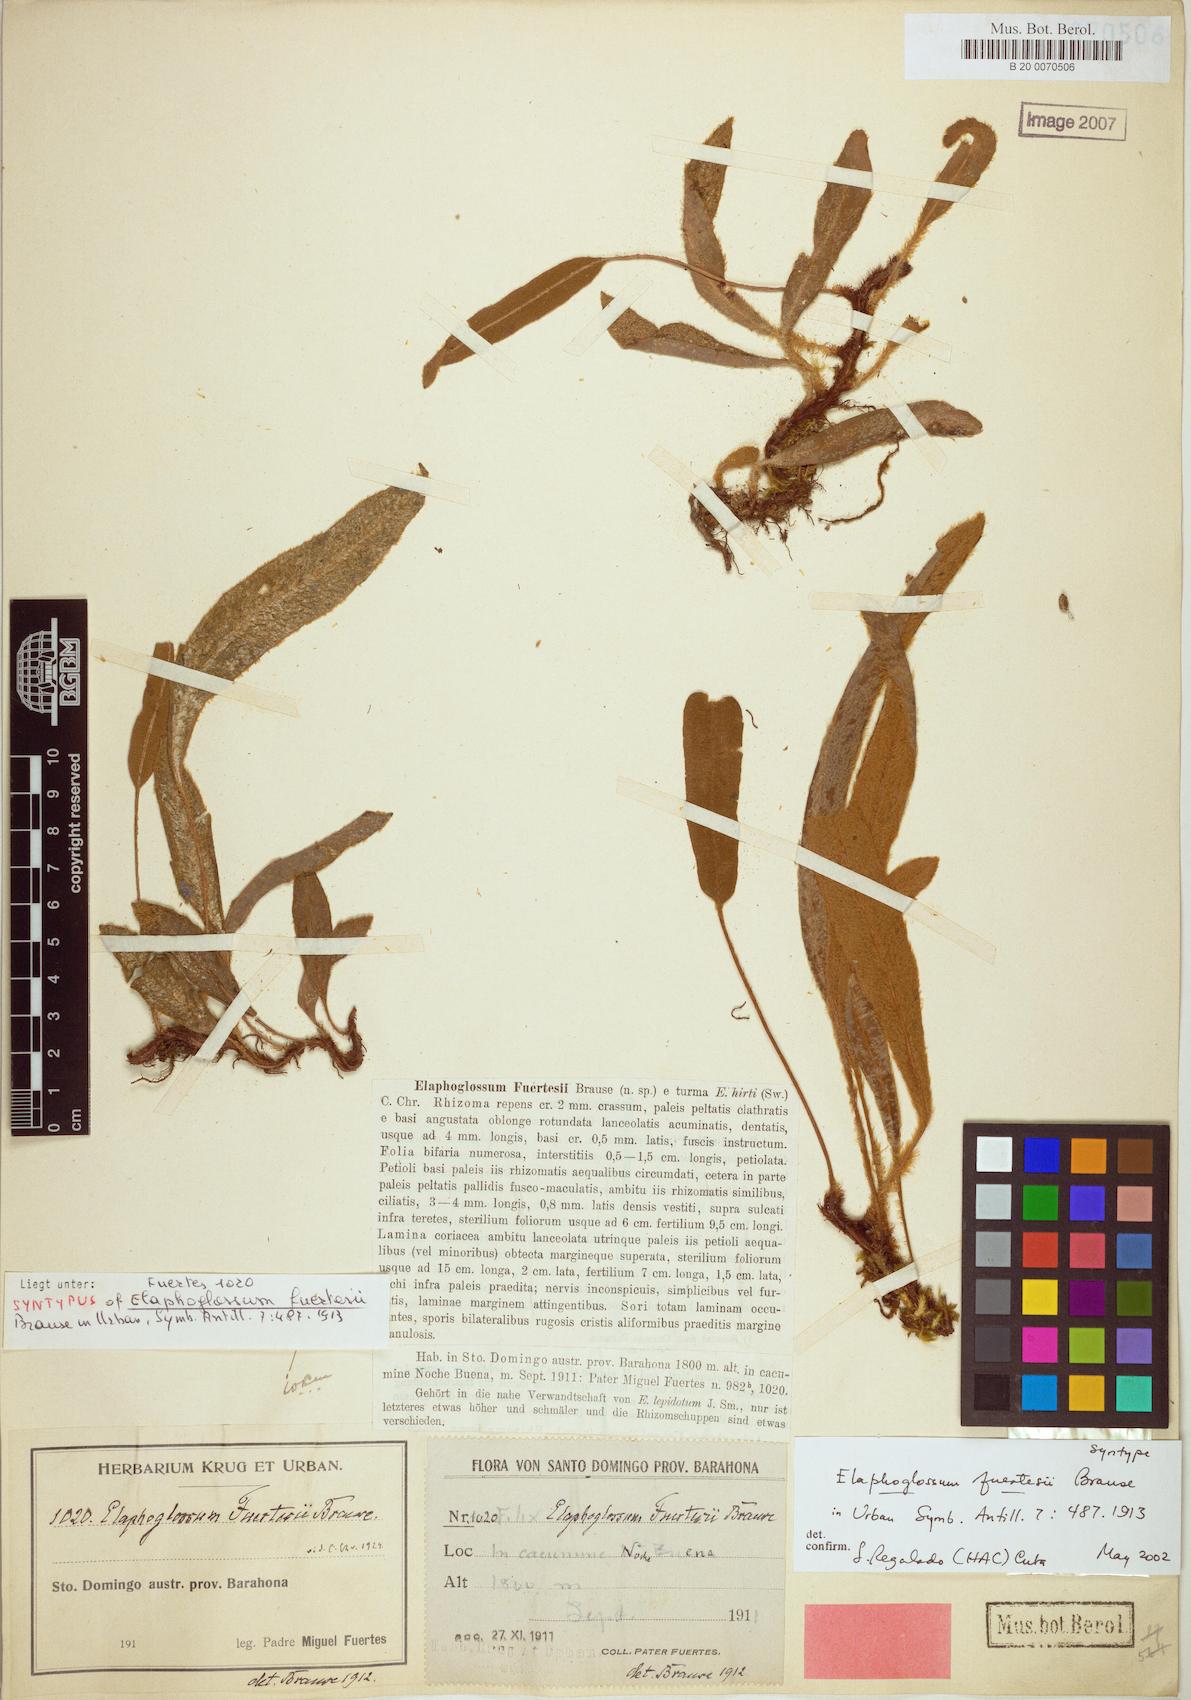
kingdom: Plantae
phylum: Tracheophyta
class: Polypodiopsida
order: Polypodiales
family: Dryopteridaceae
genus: Elaphoglossum
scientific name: Elaphoglossum fuertesii
